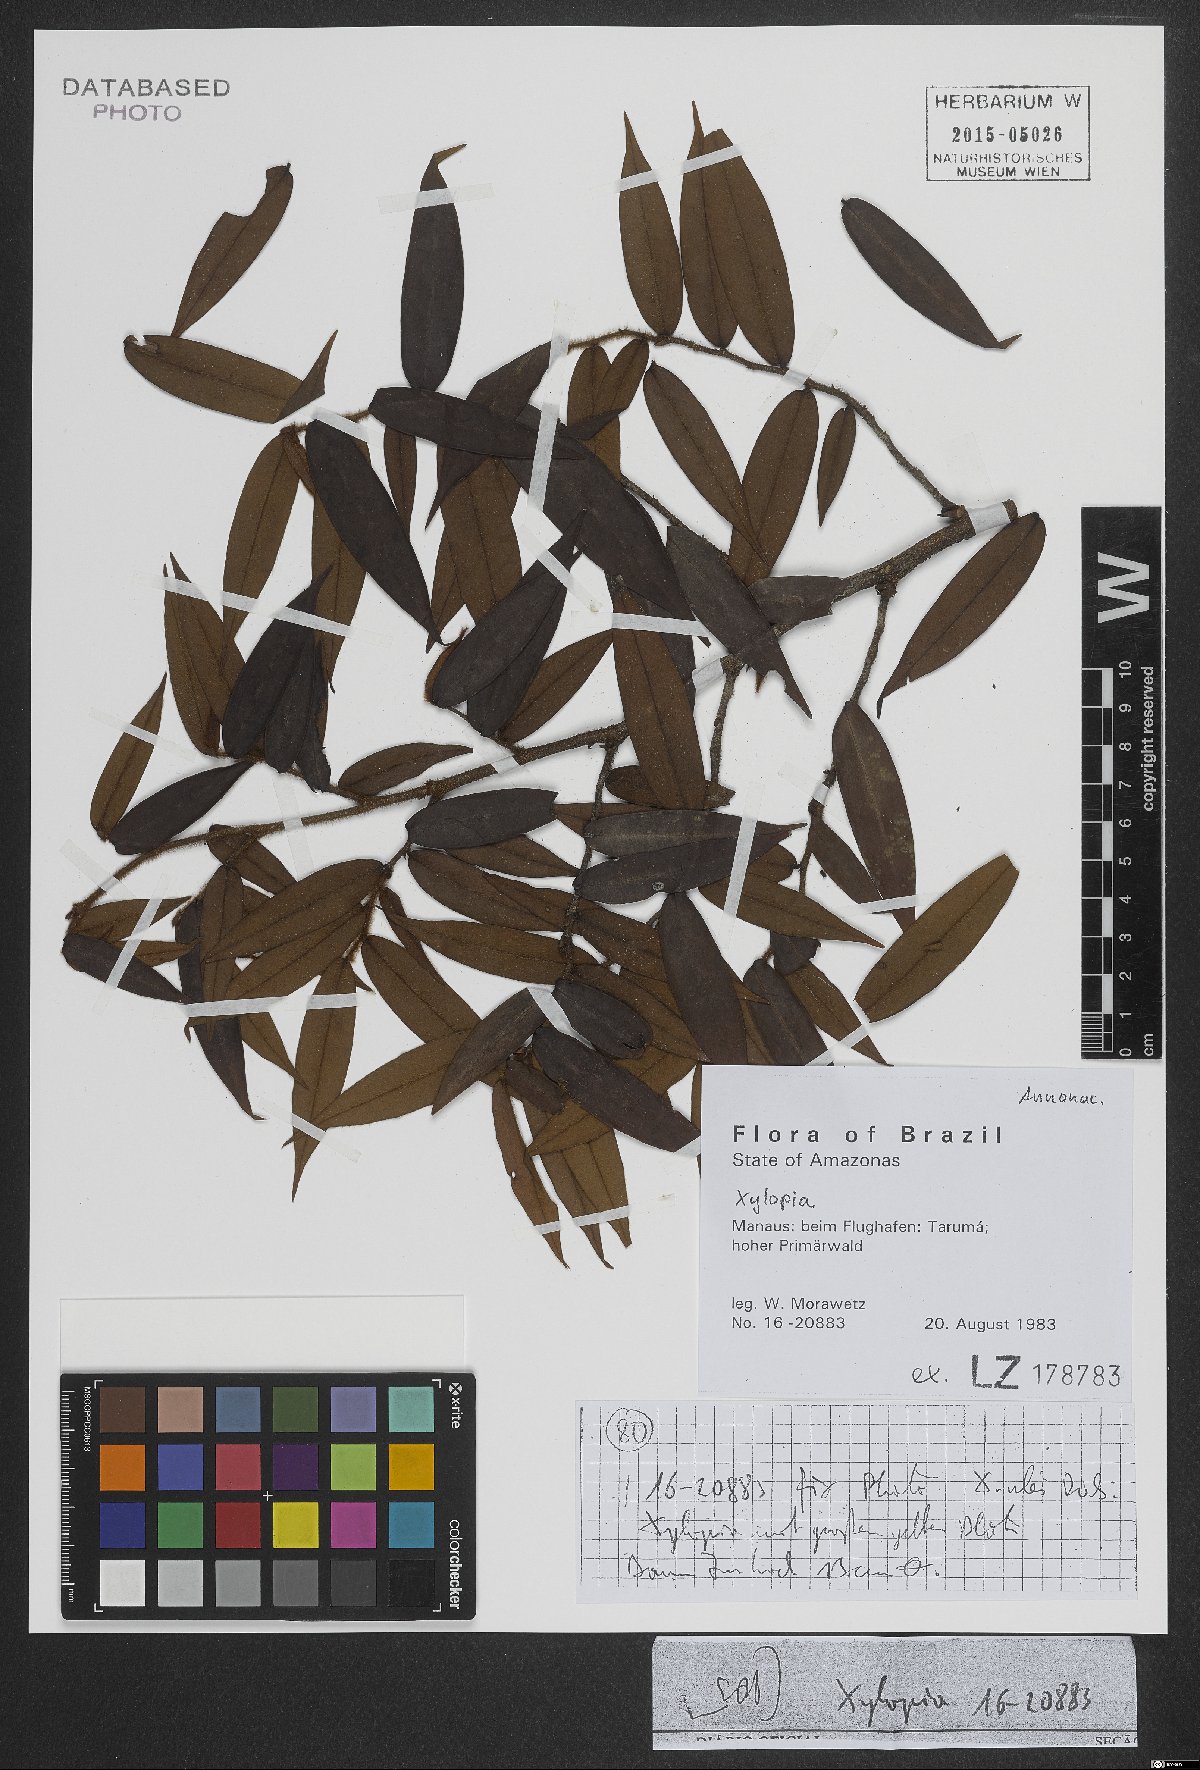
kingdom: Plantae
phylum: Tracheophyta
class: Magnoliopsida
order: Magnoliales
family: Annonaceae
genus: Xylopia
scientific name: Xylopia
